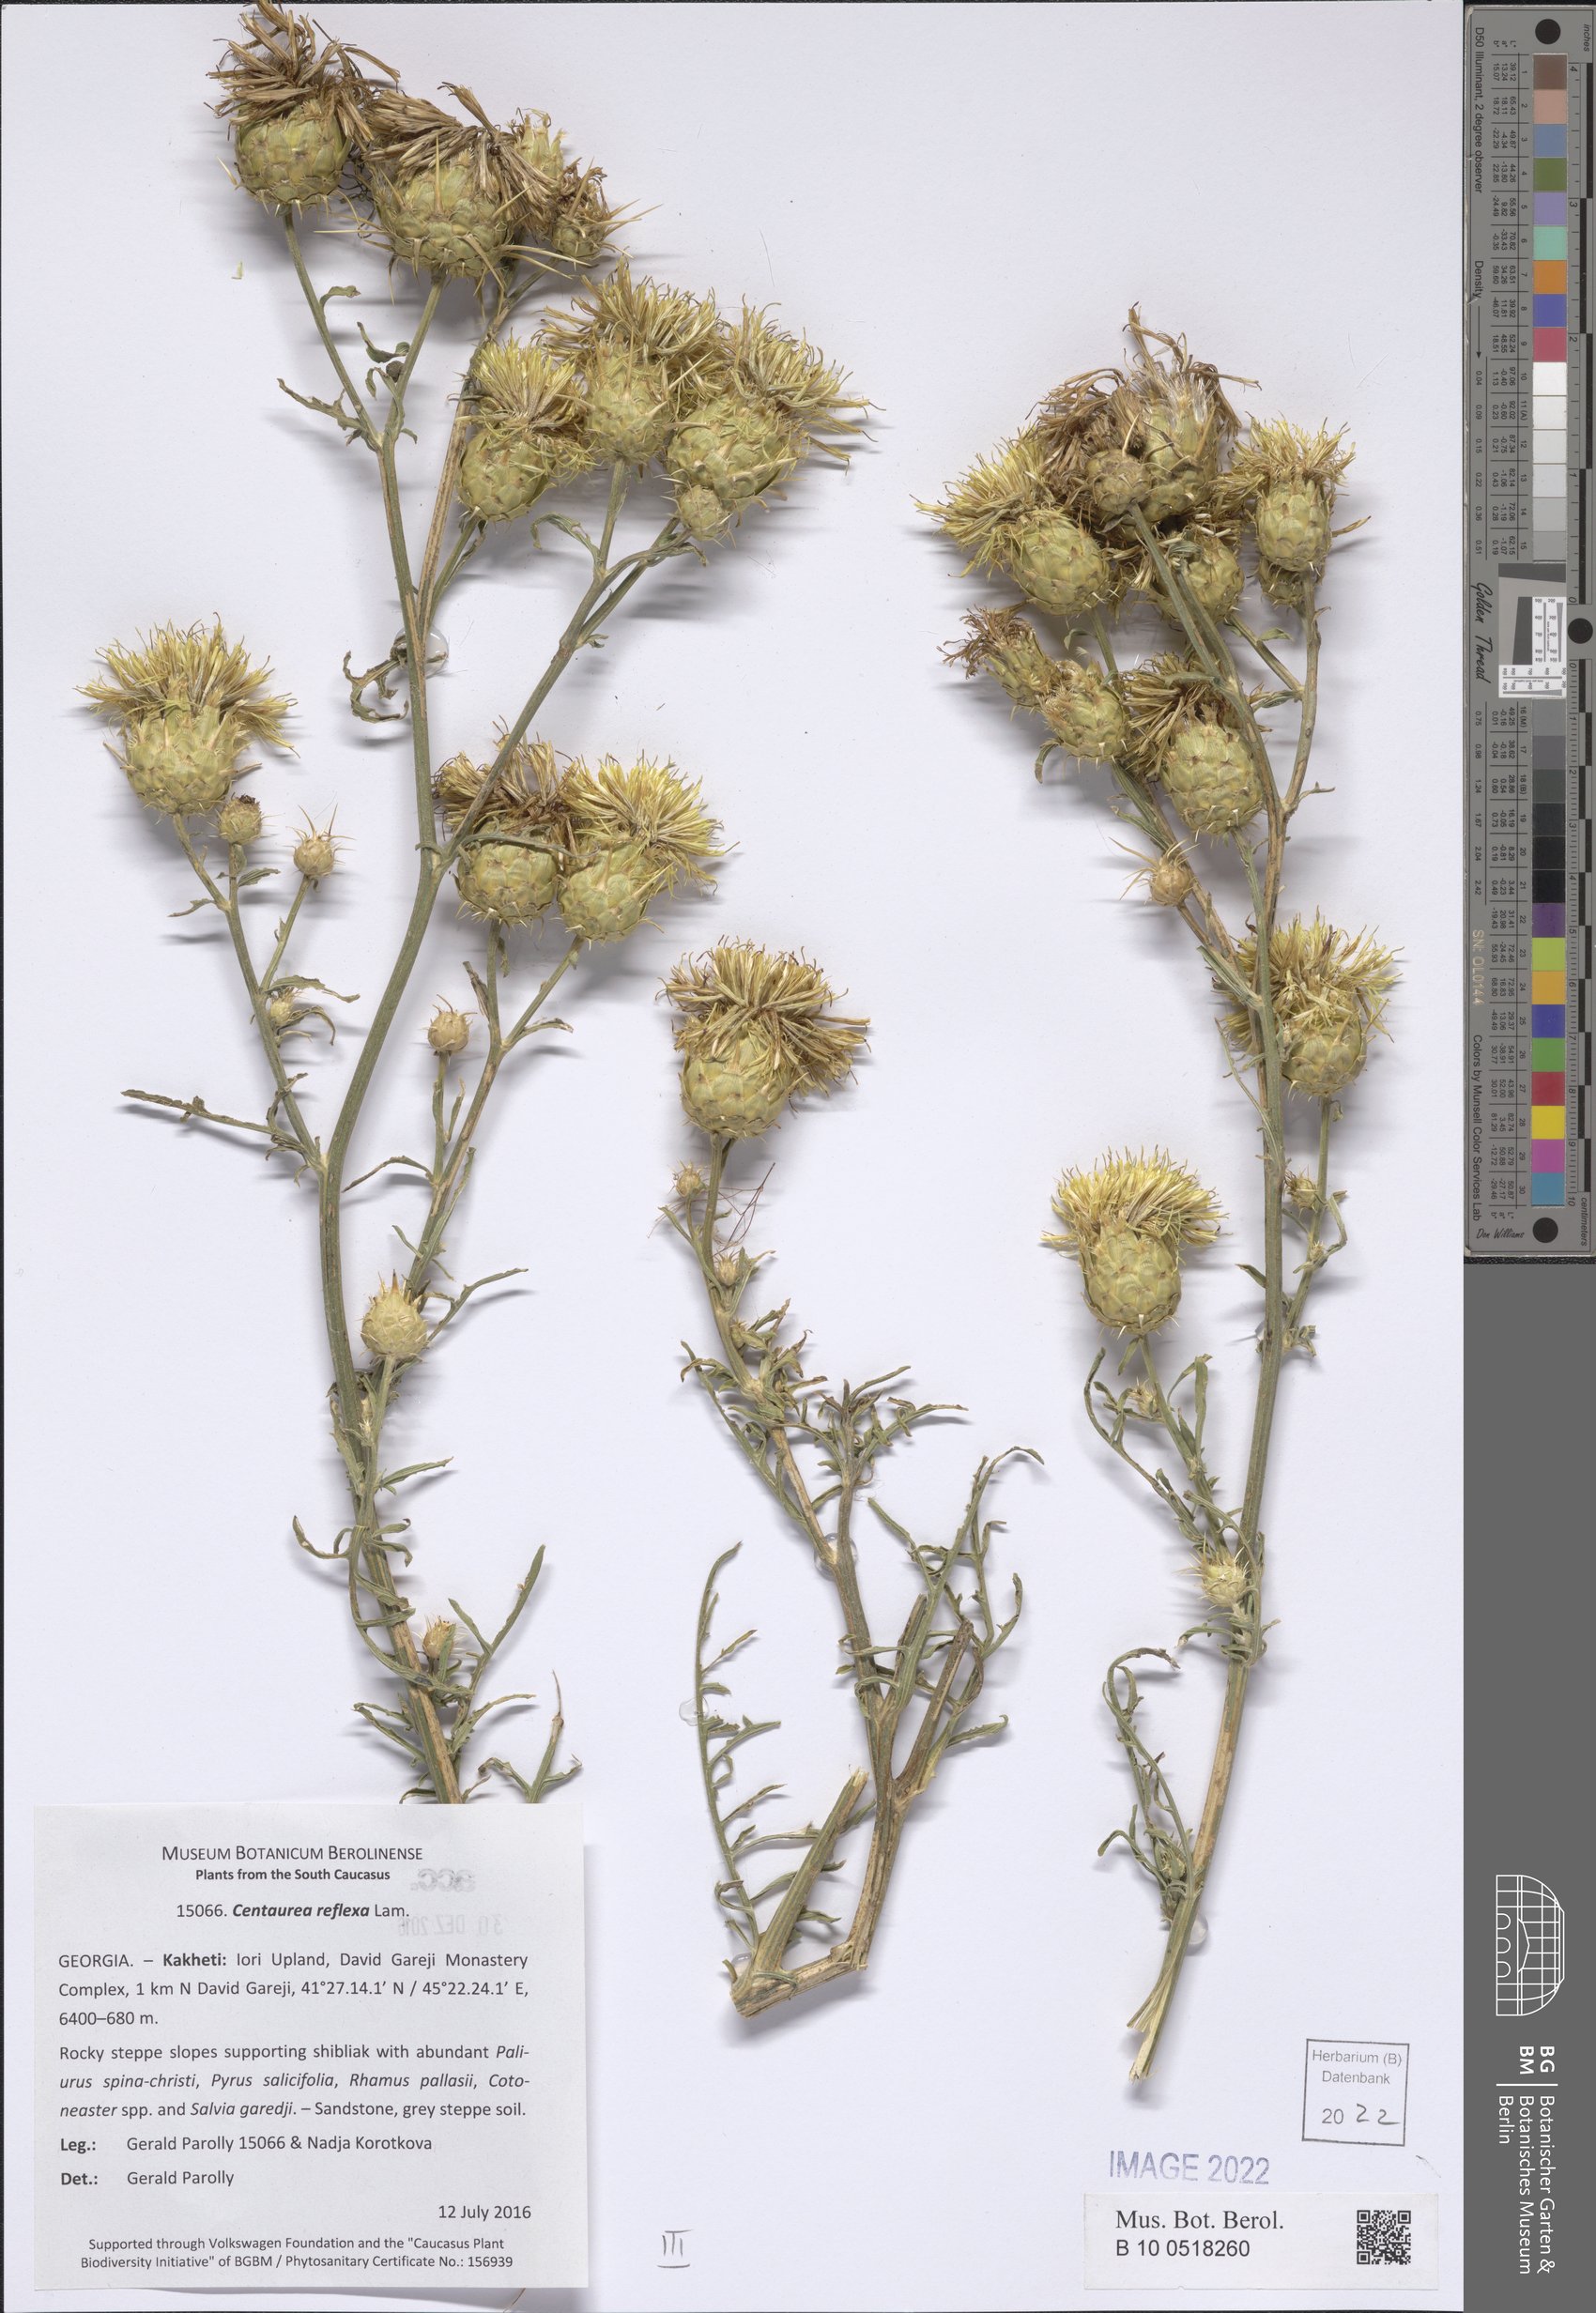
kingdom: Plantae
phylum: Tracheophyta
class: Magnoliopsida
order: Asterales
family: Asteraceae
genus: Centaurea
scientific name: Centaurea reflexa
